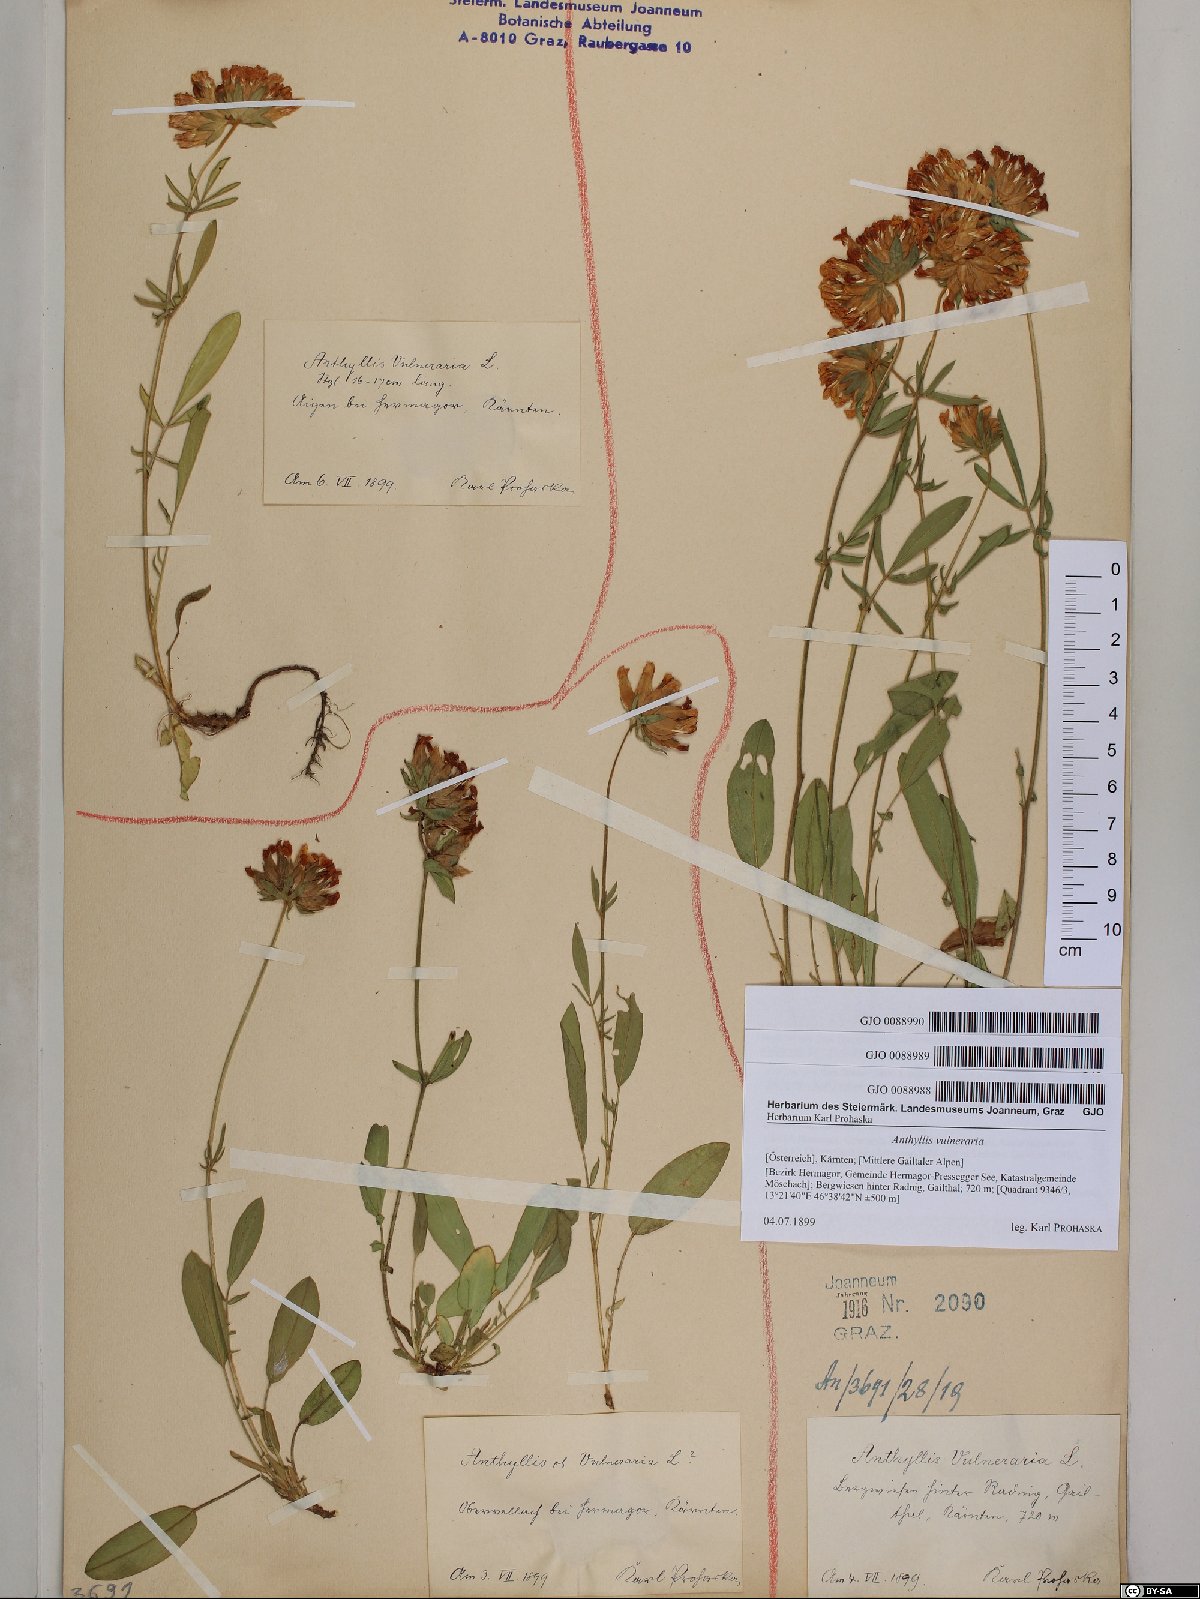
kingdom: Plantae
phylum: Tracheophyta
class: Magnoliopsida
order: Fabales
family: Fabaceae
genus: Anthyllis
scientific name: Anthyllis vulneraria
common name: Kidney vetch
